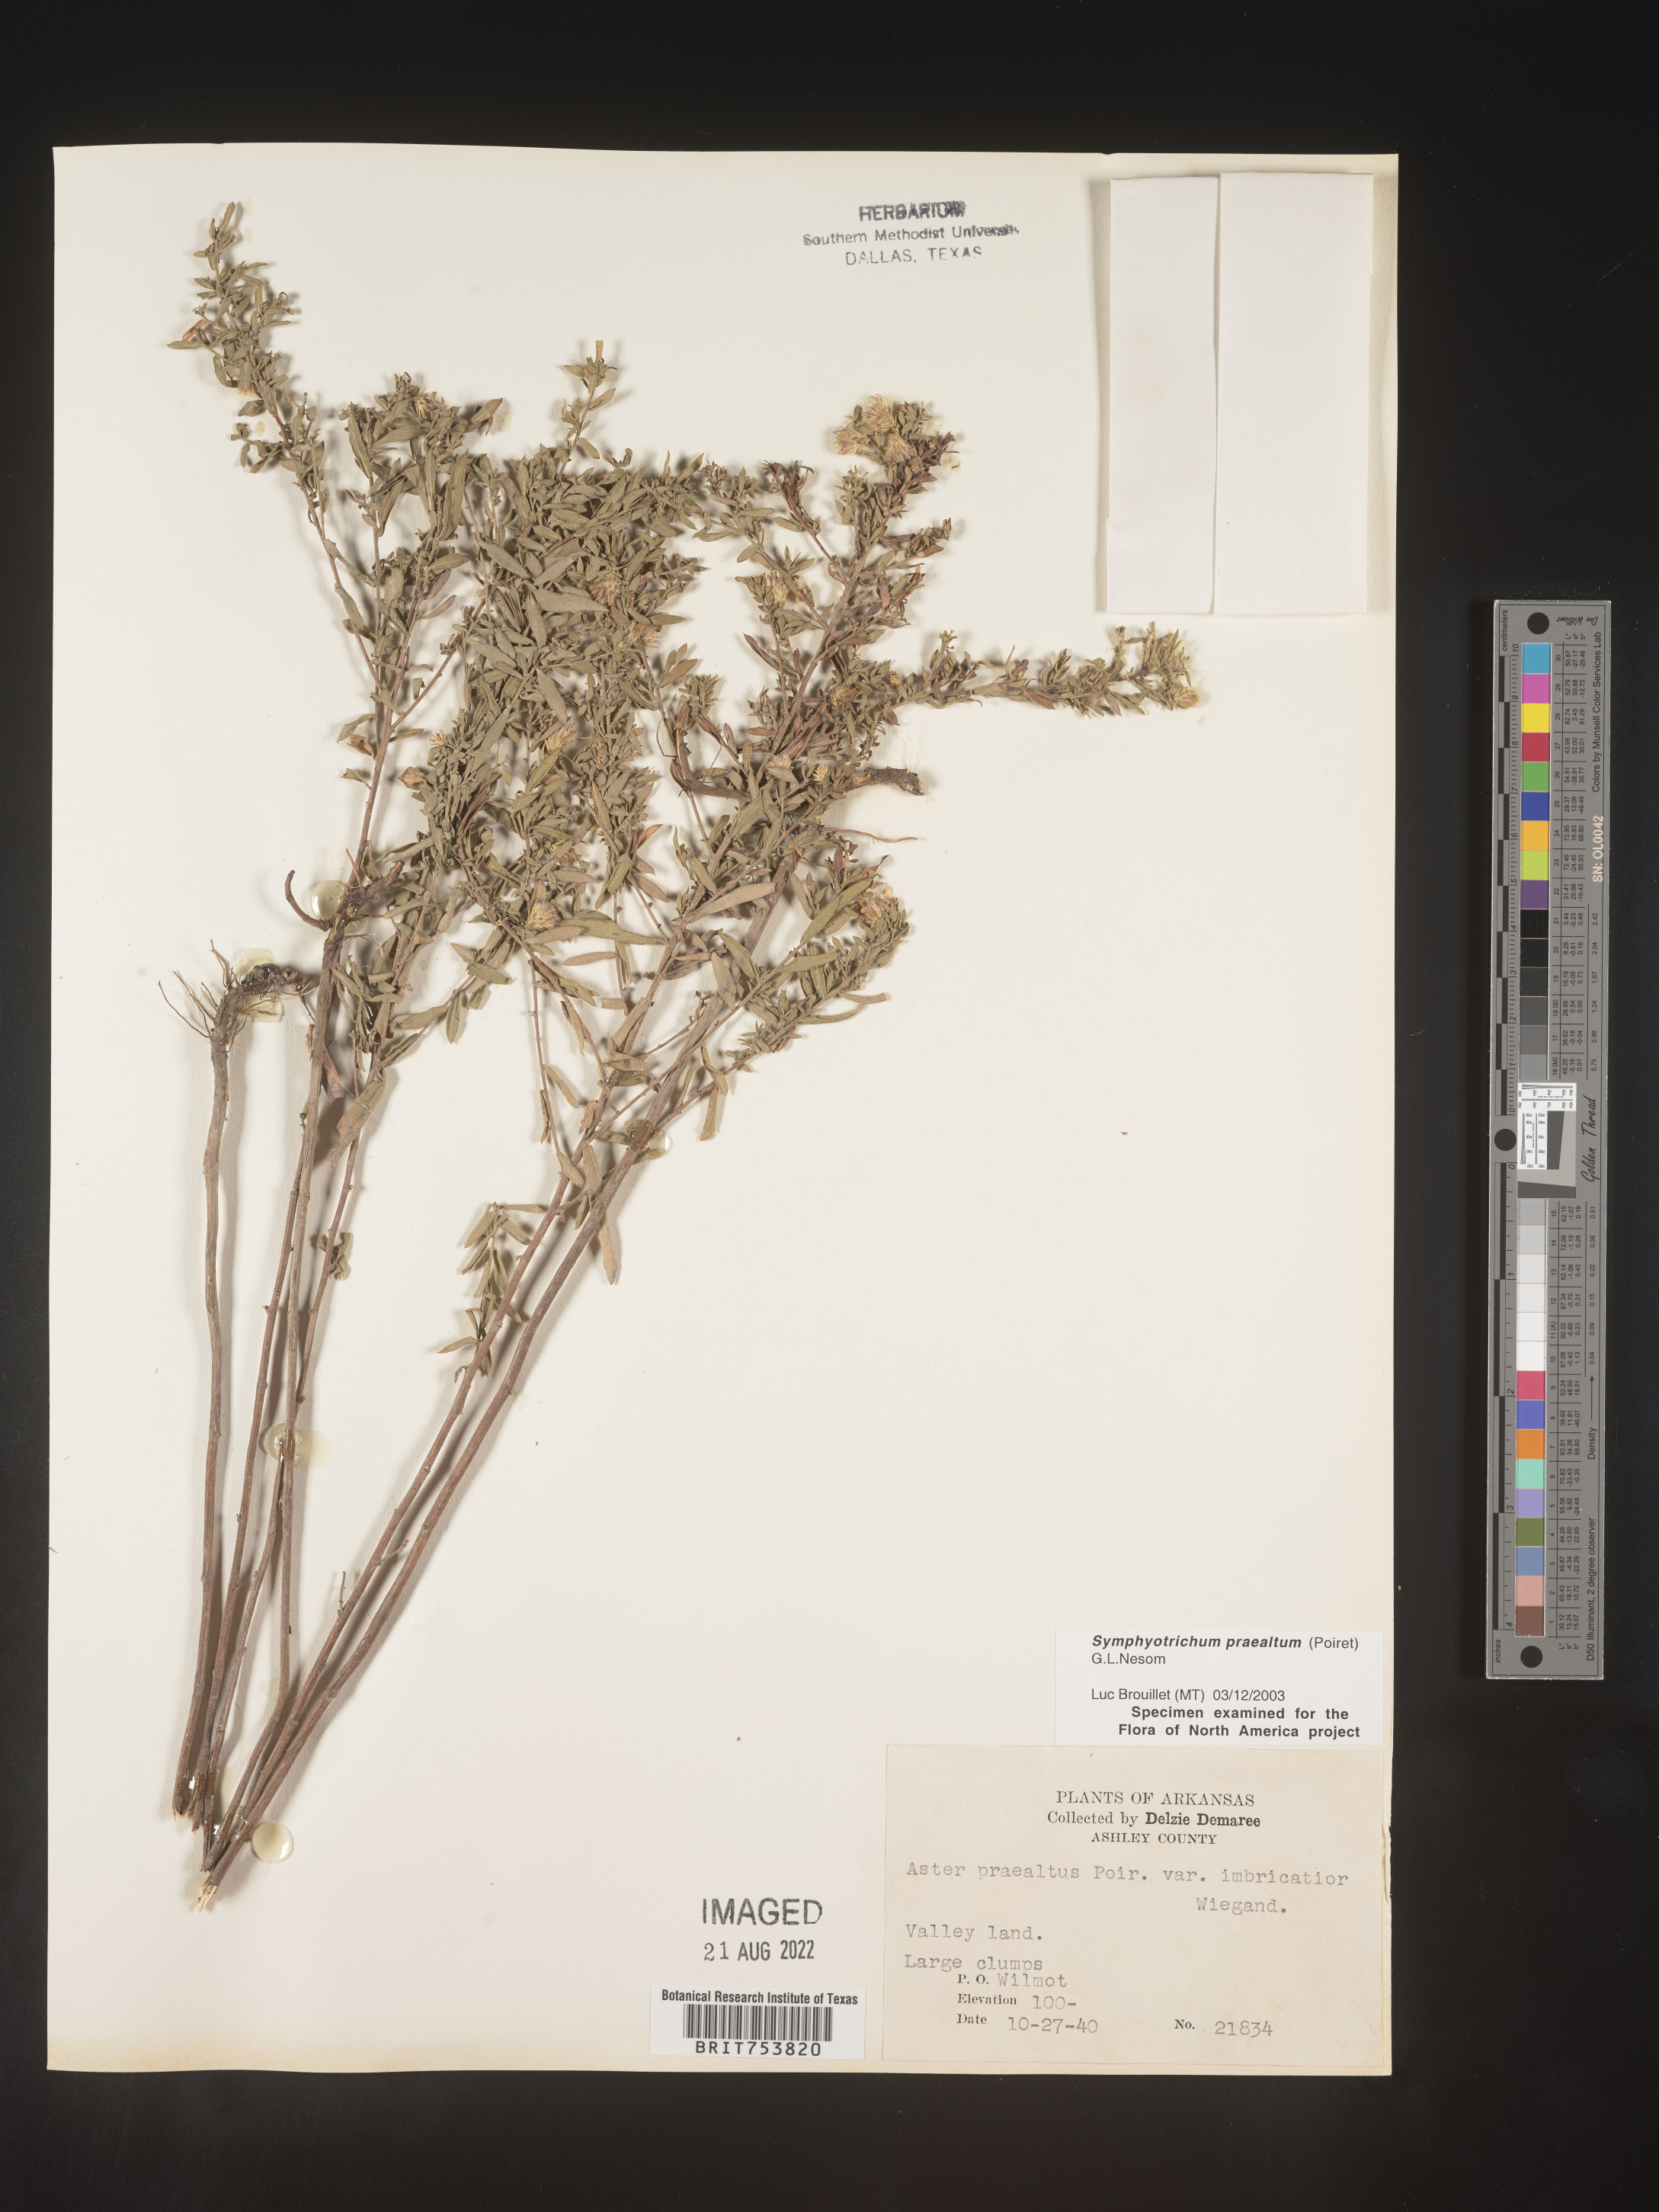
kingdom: Plantae
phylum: Tracheophyta
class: Magnoliopsida
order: Asterales
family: Asteraceae
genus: Symphyotrichum
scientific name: Symphyotrichum praealtum
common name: Willow aster
